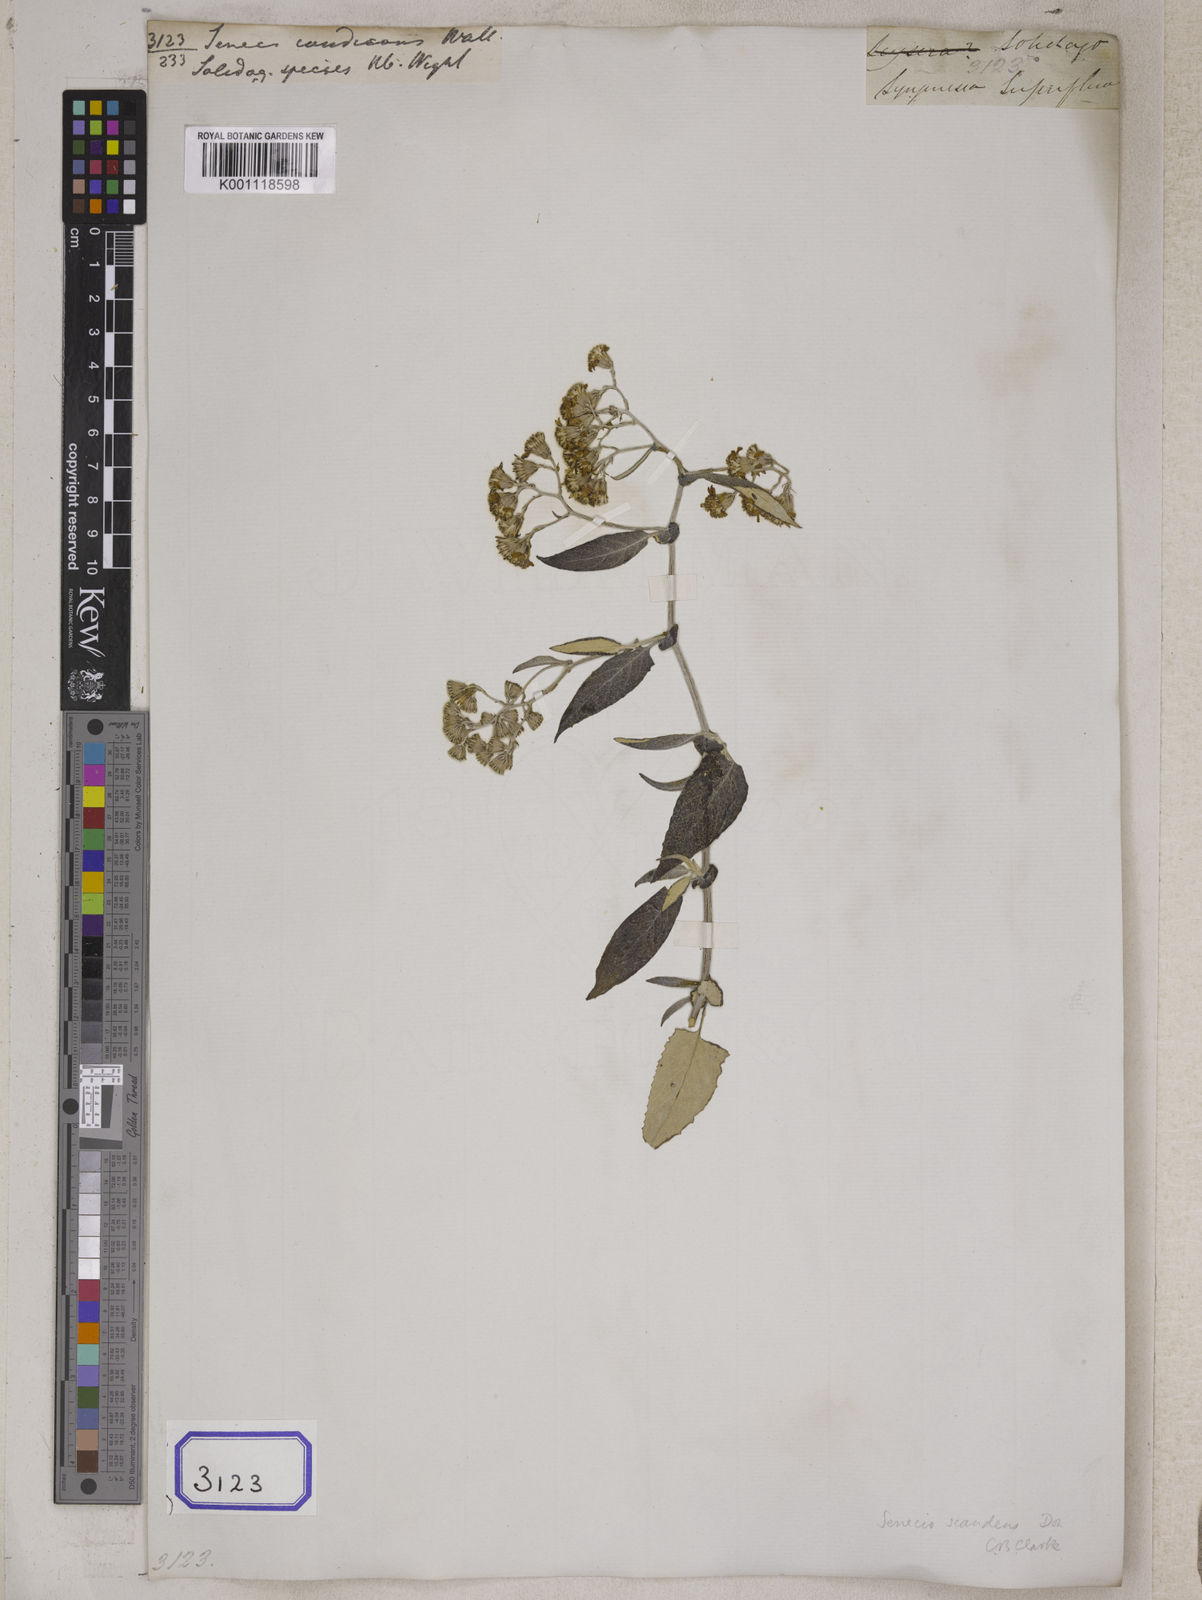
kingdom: Plantae
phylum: Tracheophyta
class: Magnoliopsida
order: Asterales
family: Asteraceae
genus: Senecio
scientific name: Senecio candicans
